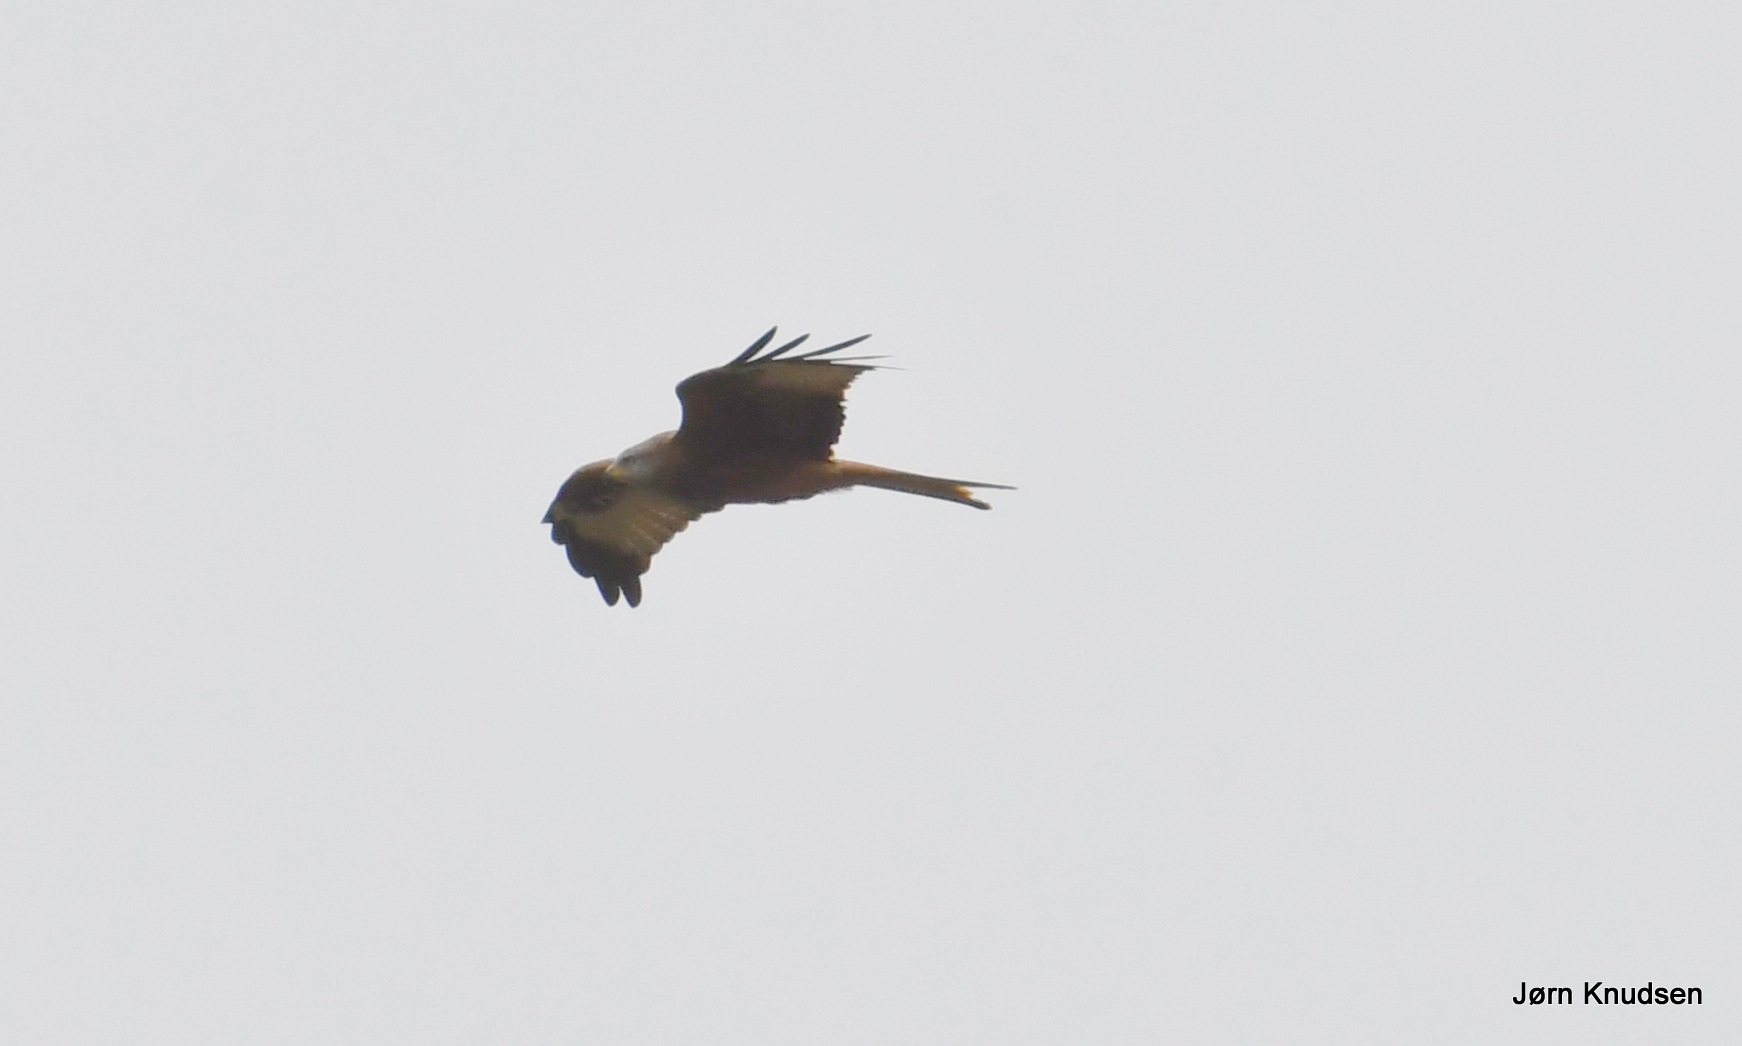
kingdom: Animalia
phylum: Chordata
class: Aves
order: Accipitriformes
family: Accipitridae
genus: Milvus
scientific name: Milvus milvus
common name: Rød glente
